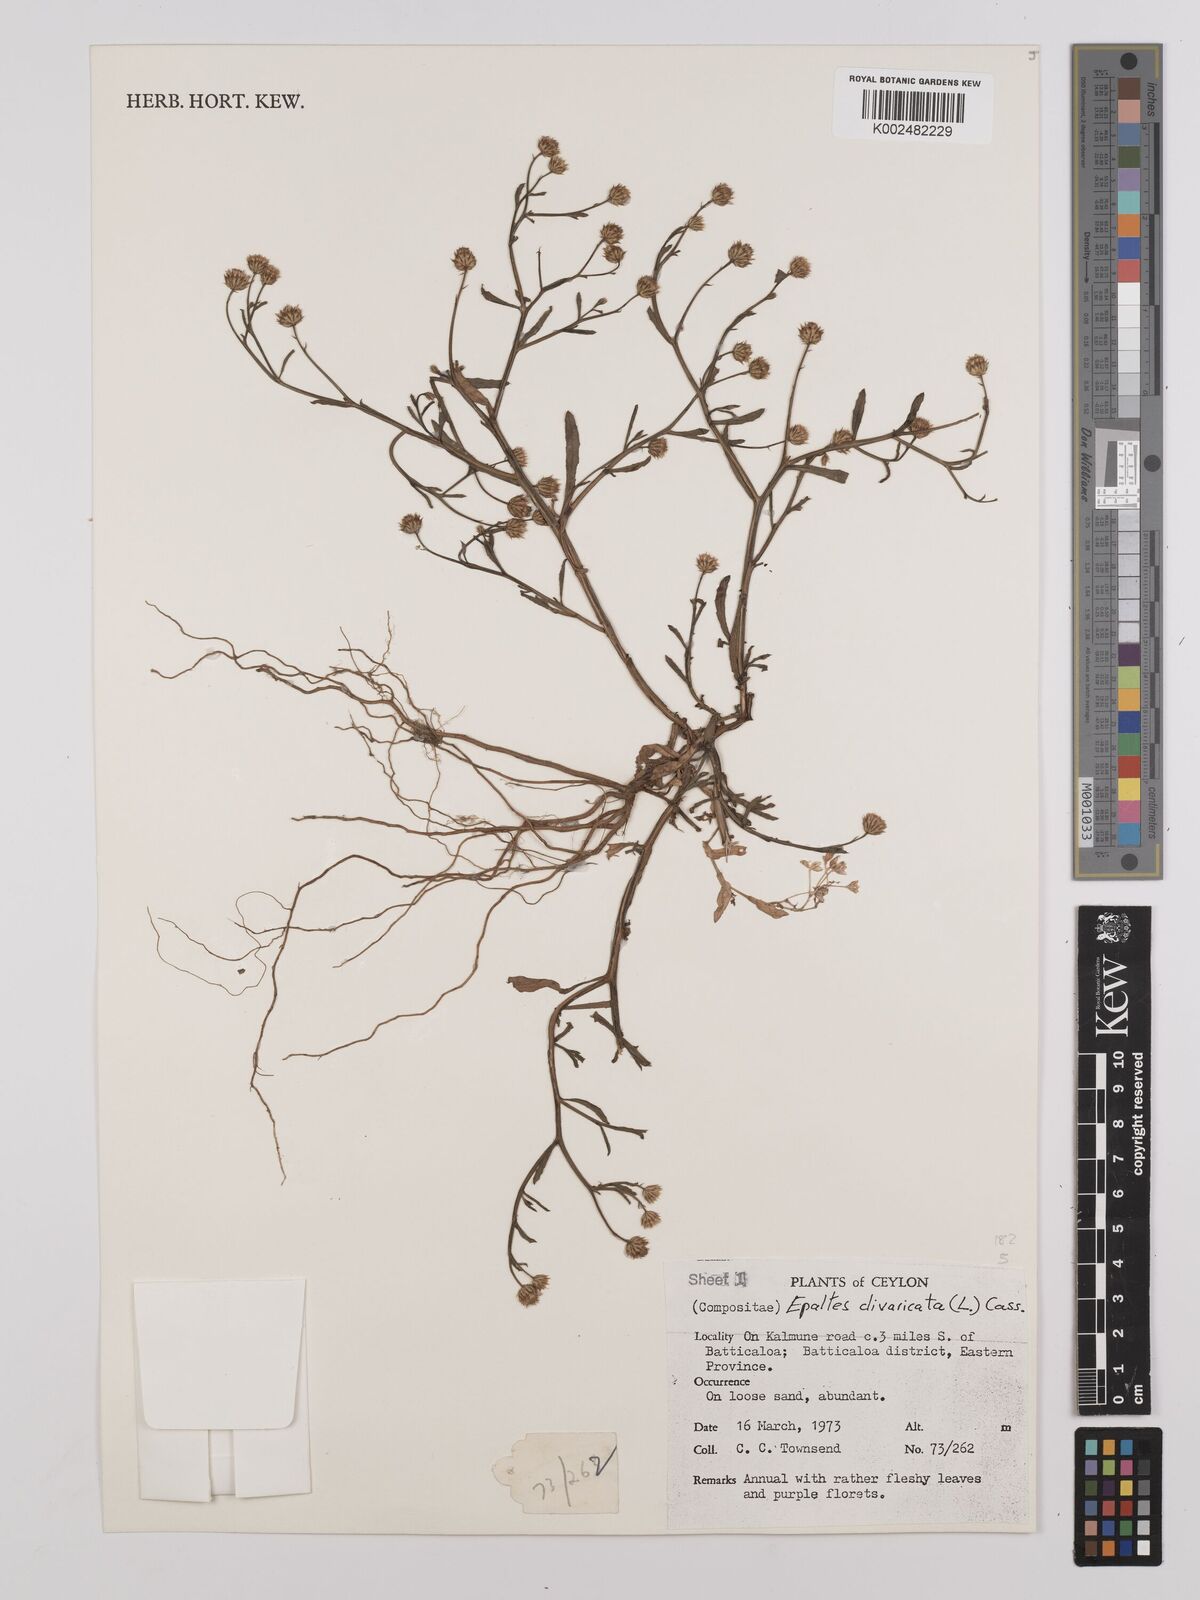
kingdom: Plantae
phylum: Tracheophyta
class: Magnoliopsida
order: Asterales
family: Asteraceae
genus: Epaltes
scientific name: Epaltes divaricata
